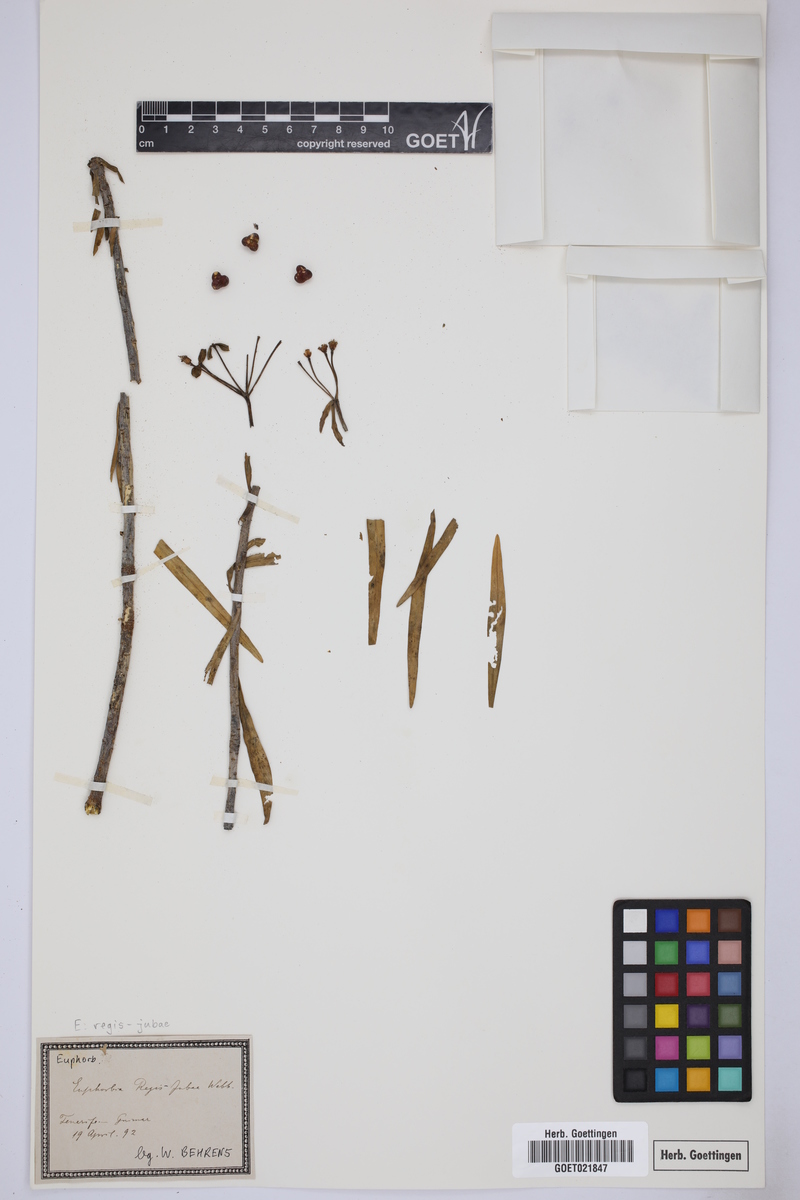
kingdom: Plantae
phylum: Tracheophyta
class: Magnoliopsida
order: Malpighiales
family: Euphorbiaceae
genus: Euphorbia
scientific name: Euphorbia regis-jubae
